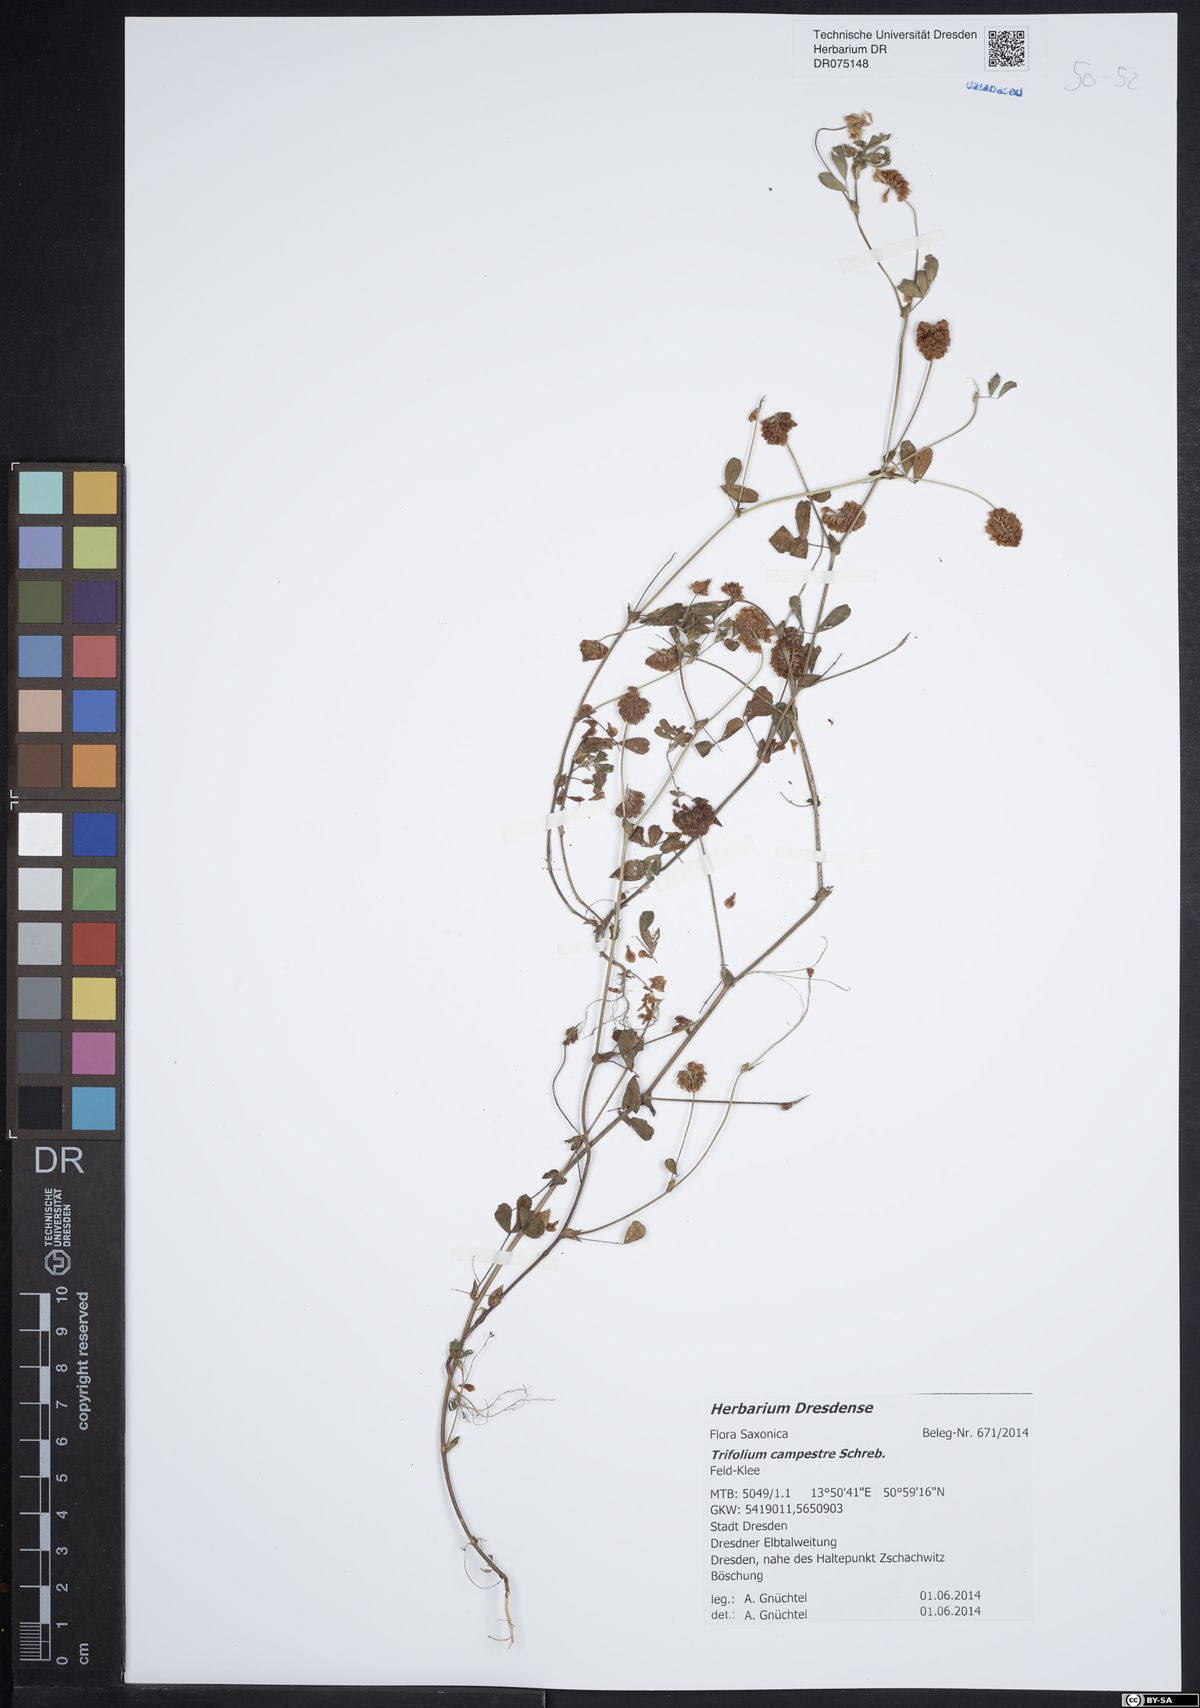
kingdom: Plantae
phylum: Tracheophyta
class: Magnoliopsida
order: Fabales
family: Fabaceae
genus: Trifolium
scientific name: Trifolium campestre
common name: Field clover
